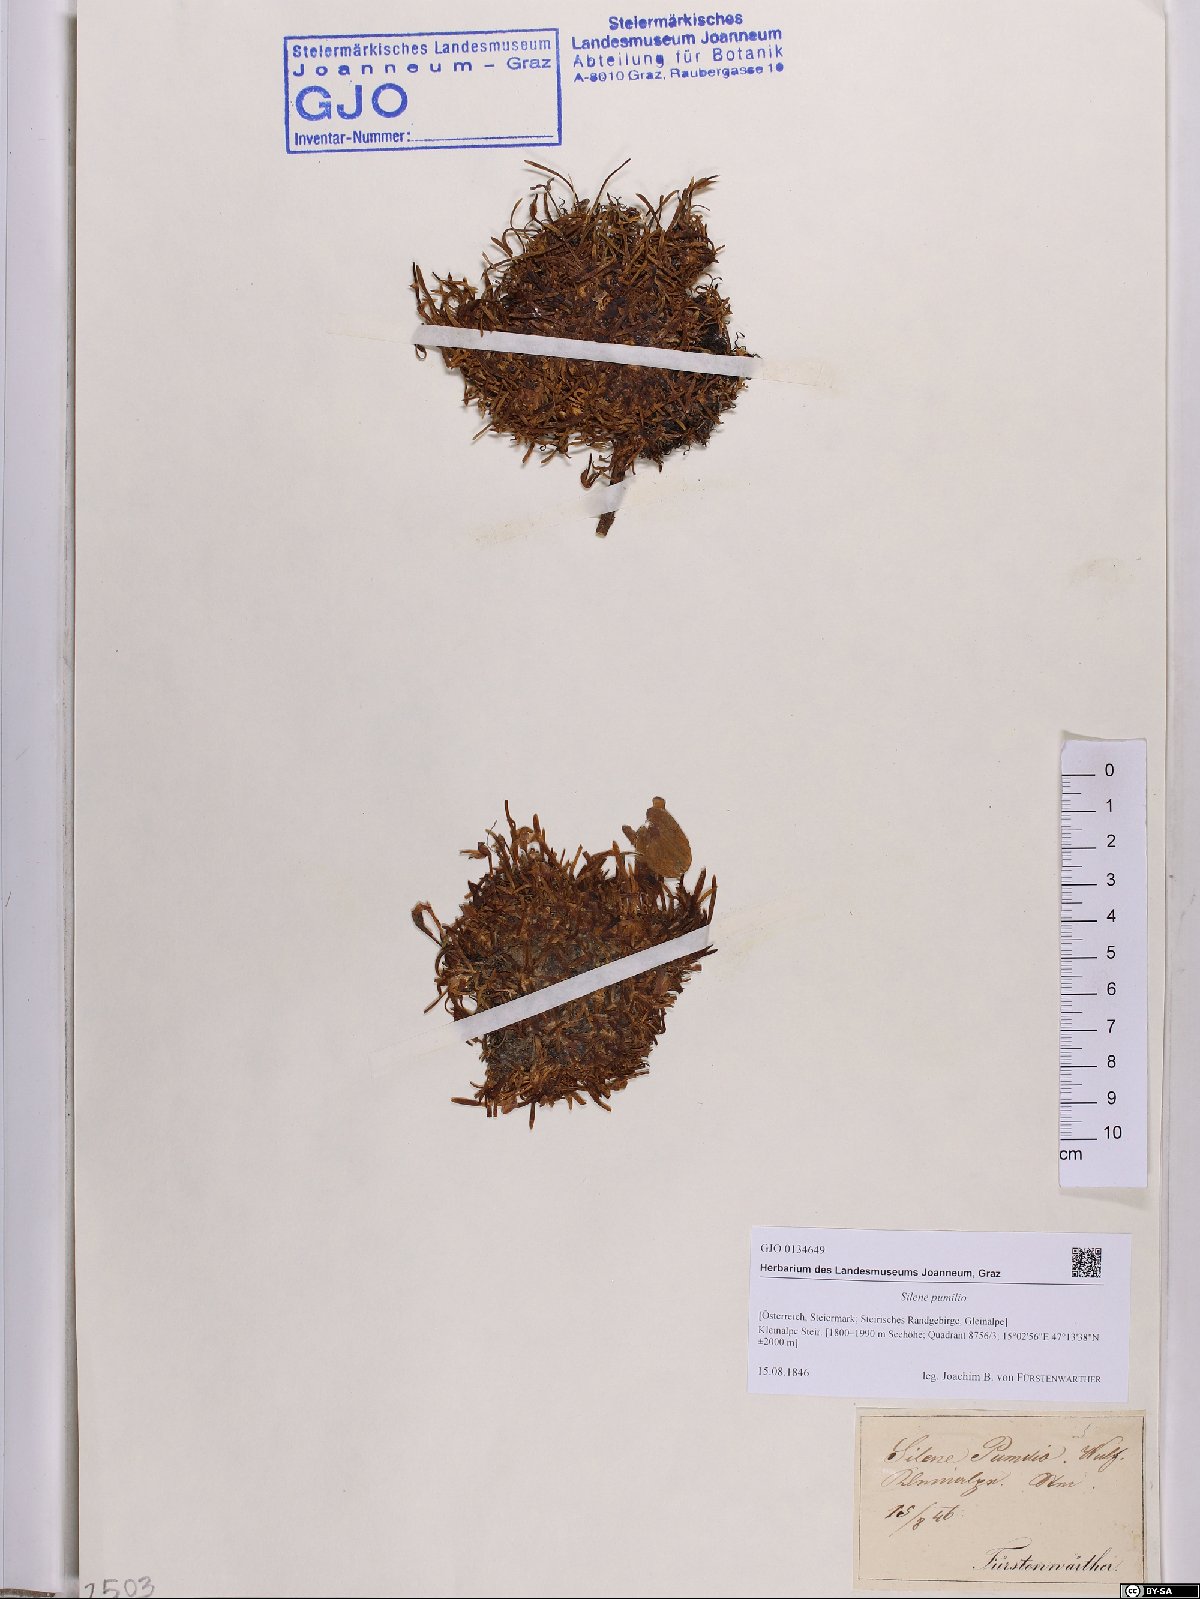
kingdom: Plantae
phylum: Tracheophyta
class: Magnoliopsida
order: Caryophyllales
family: Caryophyllaceae
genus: Saponaria
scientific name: Saponaria pumila
